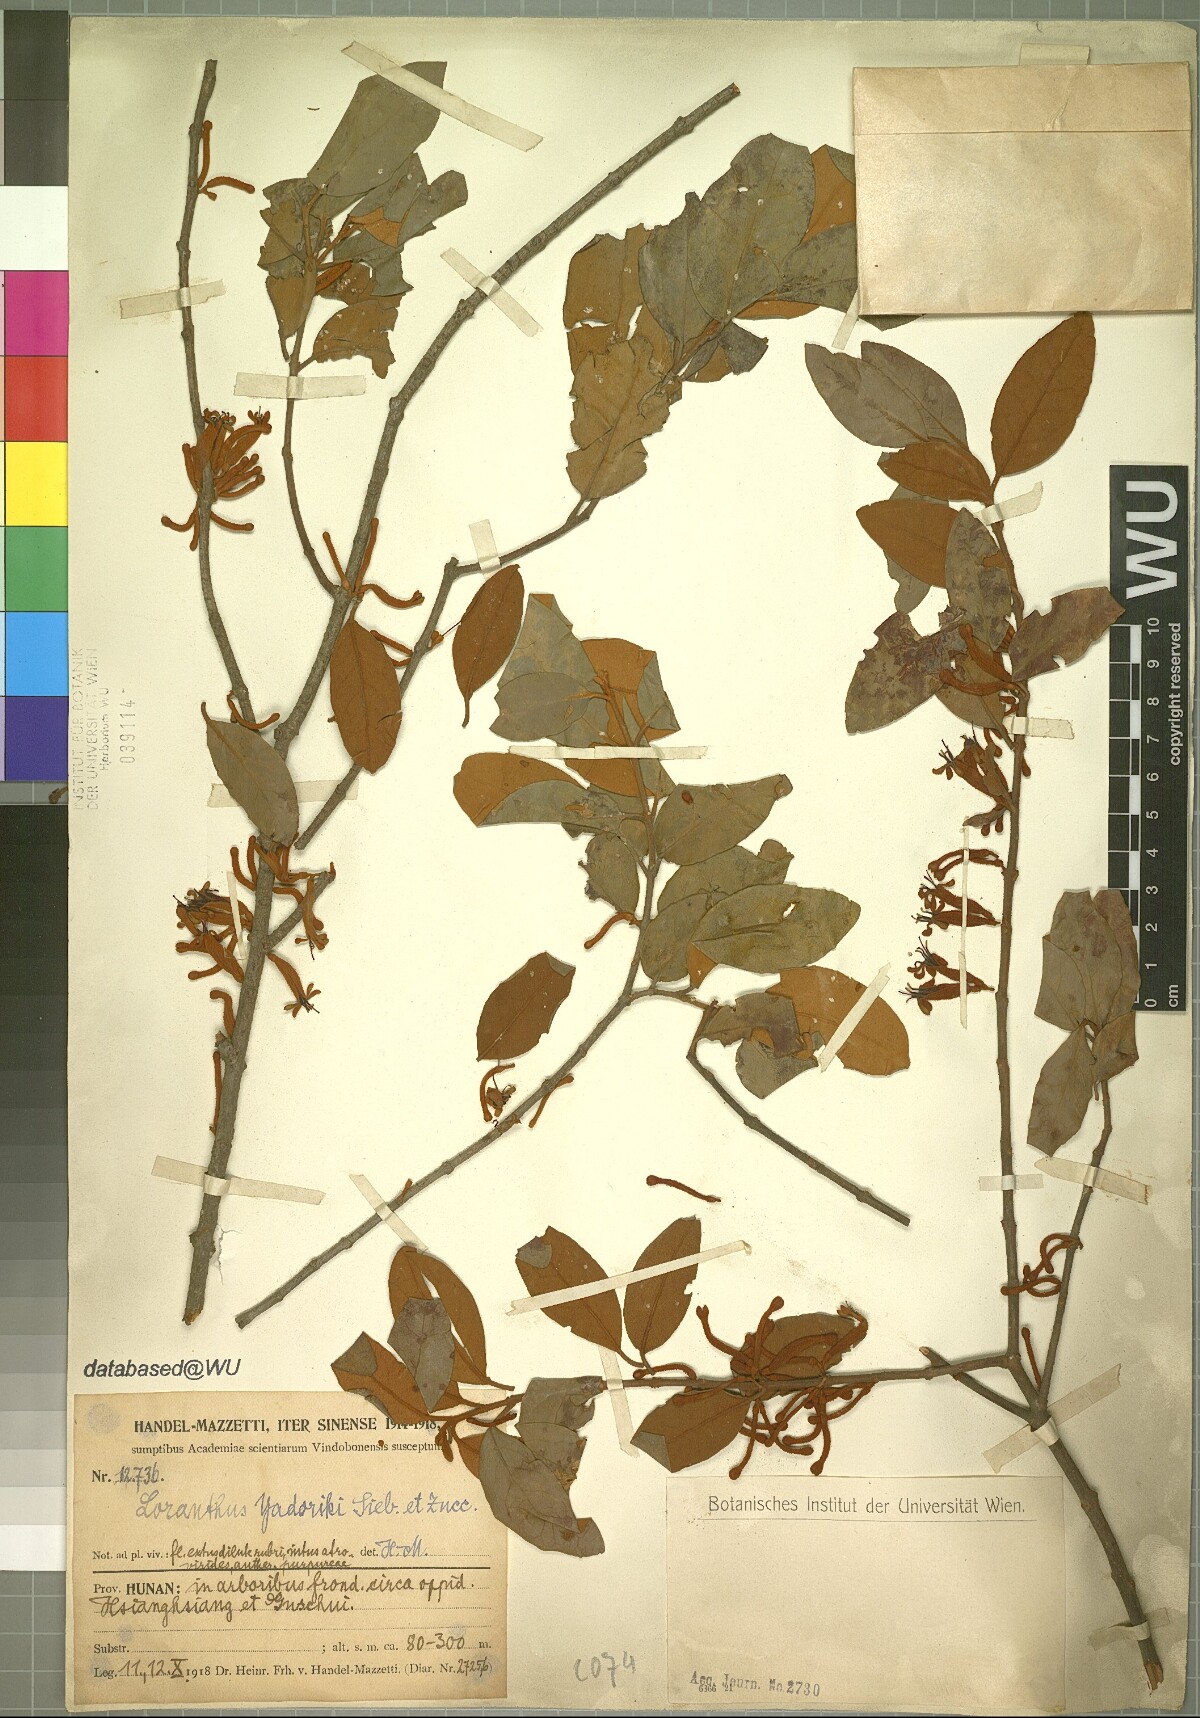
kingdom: Plantae
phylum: Tracheophyta
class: Magnoliopsida
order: Santalales
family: Loranthaceae
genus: Taxillus
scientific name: Taxillus sutchuenensis
